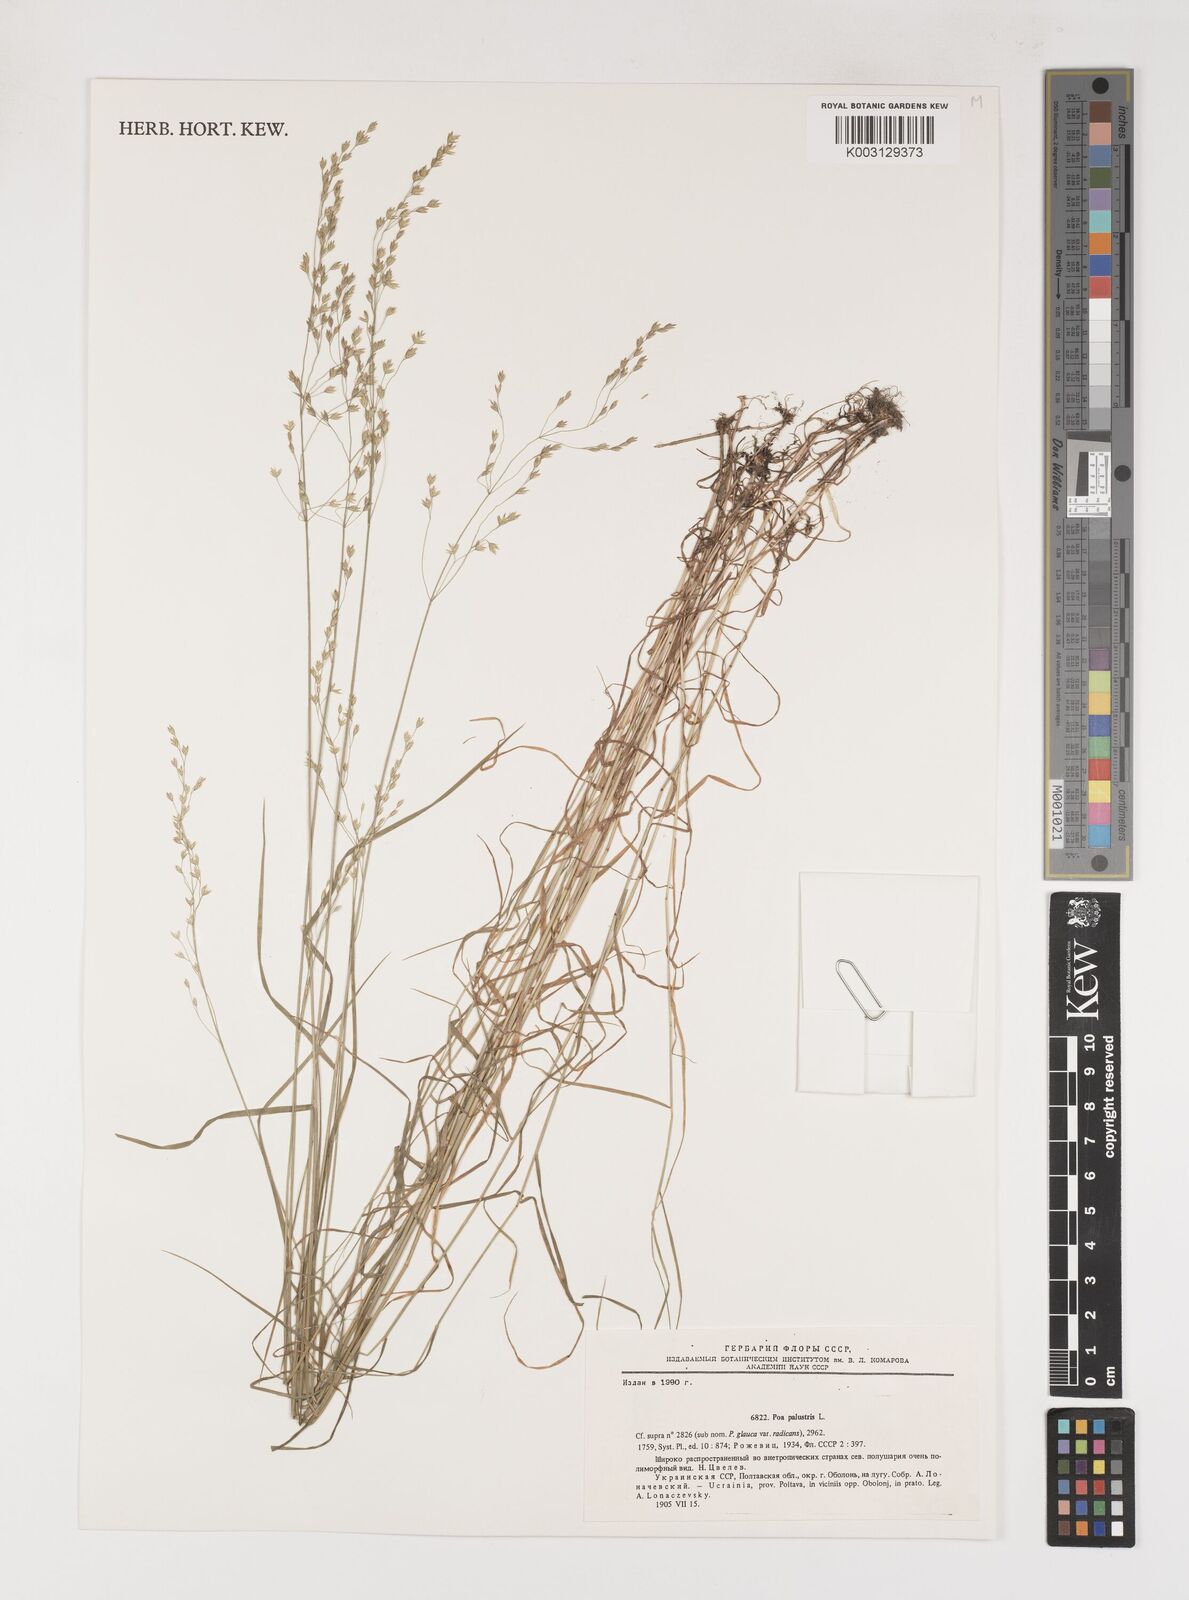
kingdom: Plantae
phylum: Tracheophyta
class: Liliopsida
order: Poales
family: Poaceae
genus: Poa
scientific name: Poa palustris
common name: Swamp meadow-grass
